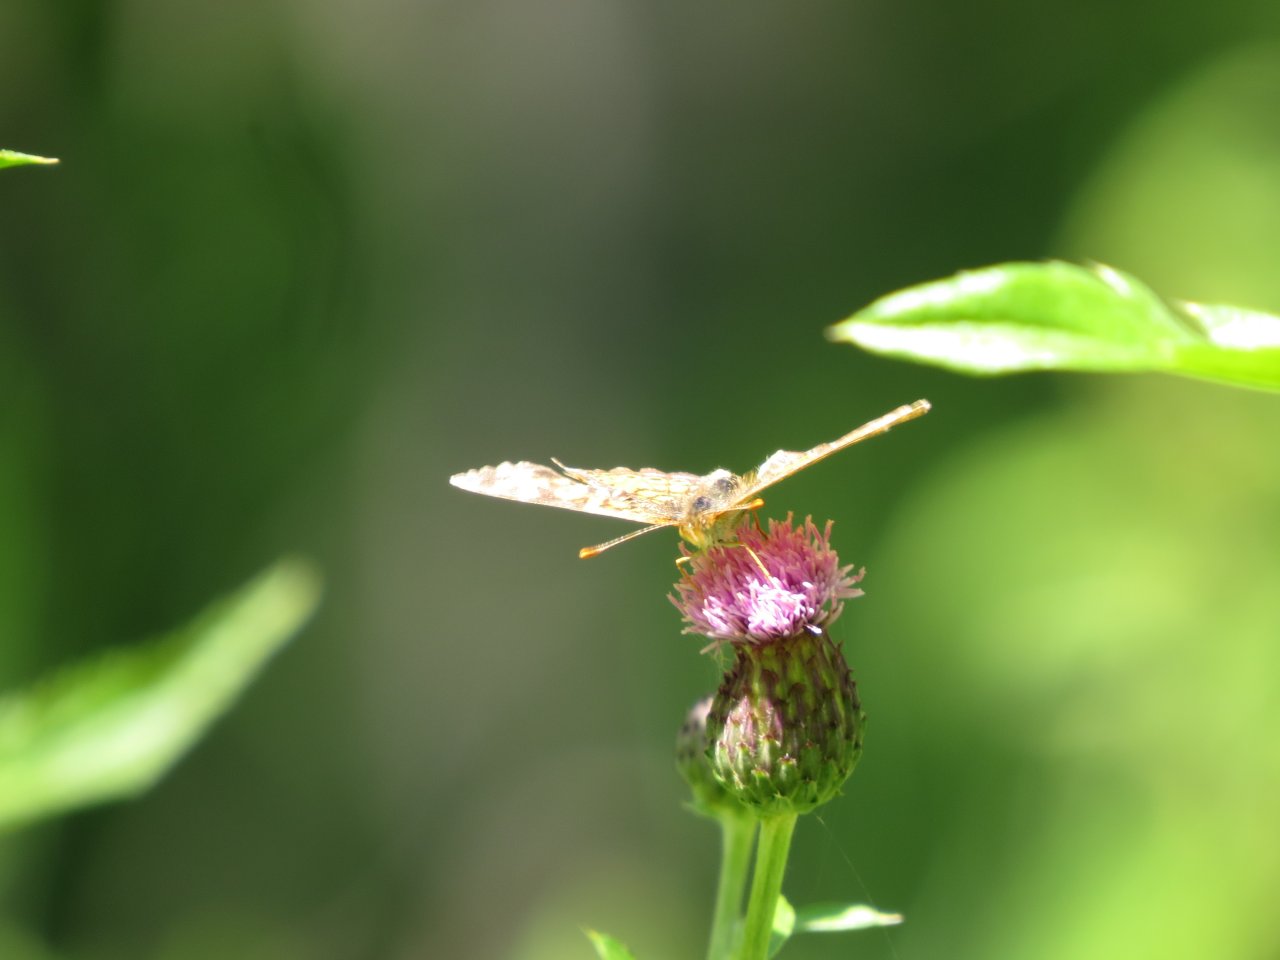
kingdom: Animalia
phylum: Arthropoda
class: Insecta
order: Lepidoptera
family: Nymphalidae
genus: Phyciodes
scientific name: Phyciodes tharos
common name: Northern Crescent
